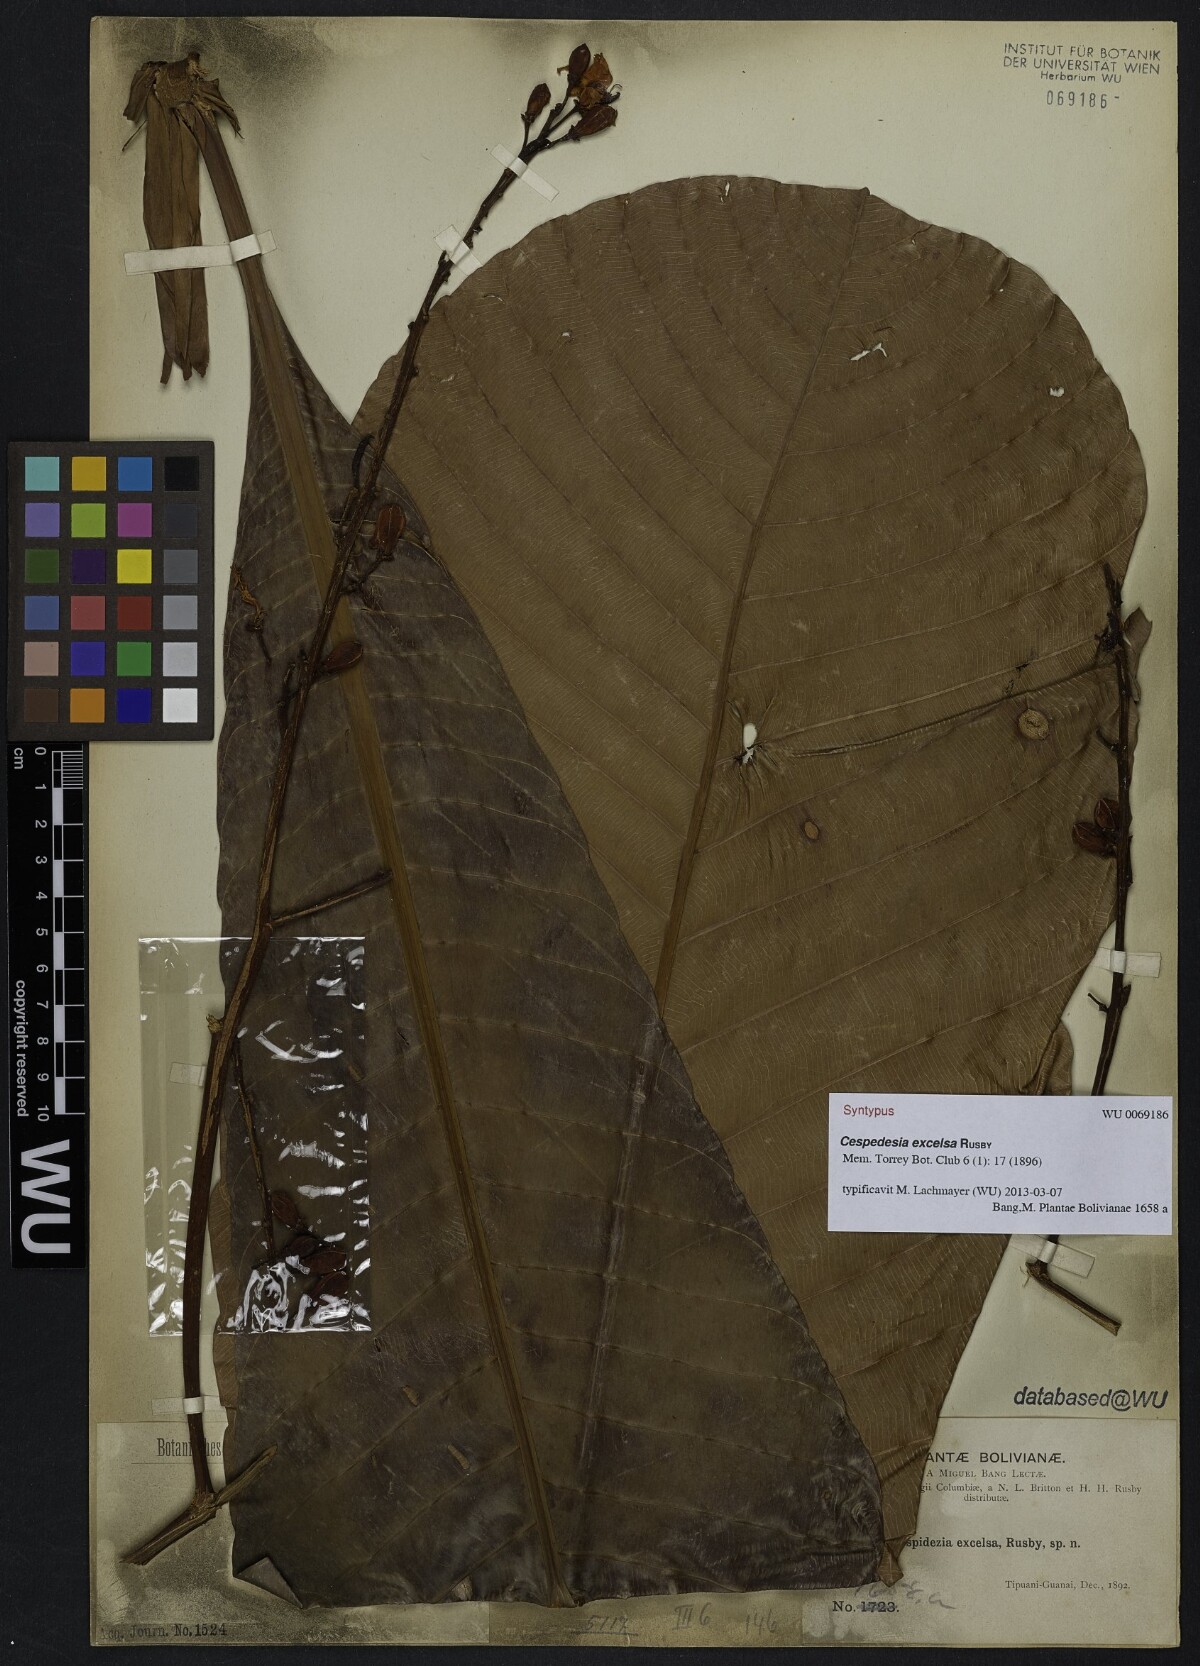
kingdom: Plantae
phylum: Tracheophyta
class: Magnoliopsida
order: Malpighiales
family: Ochnaceae
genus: Cespedesia
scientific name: Cespedesia spathulata
